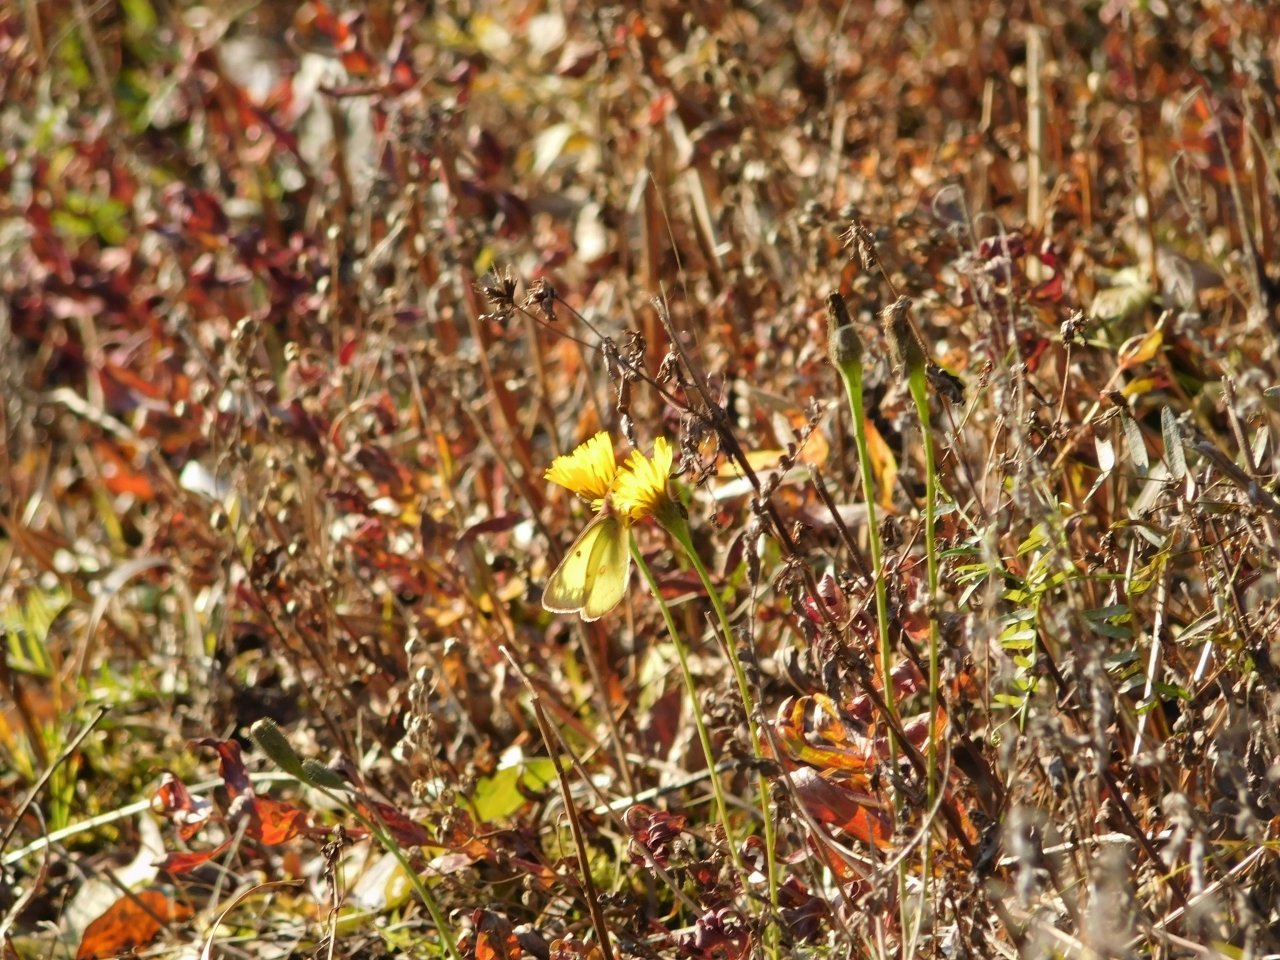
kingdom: Animalia
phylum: Arthropoda
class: Insecta
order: Lepidoptera
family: Pieridae
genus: Colias
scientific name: Colias philodice
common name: Clouded Sulphur
